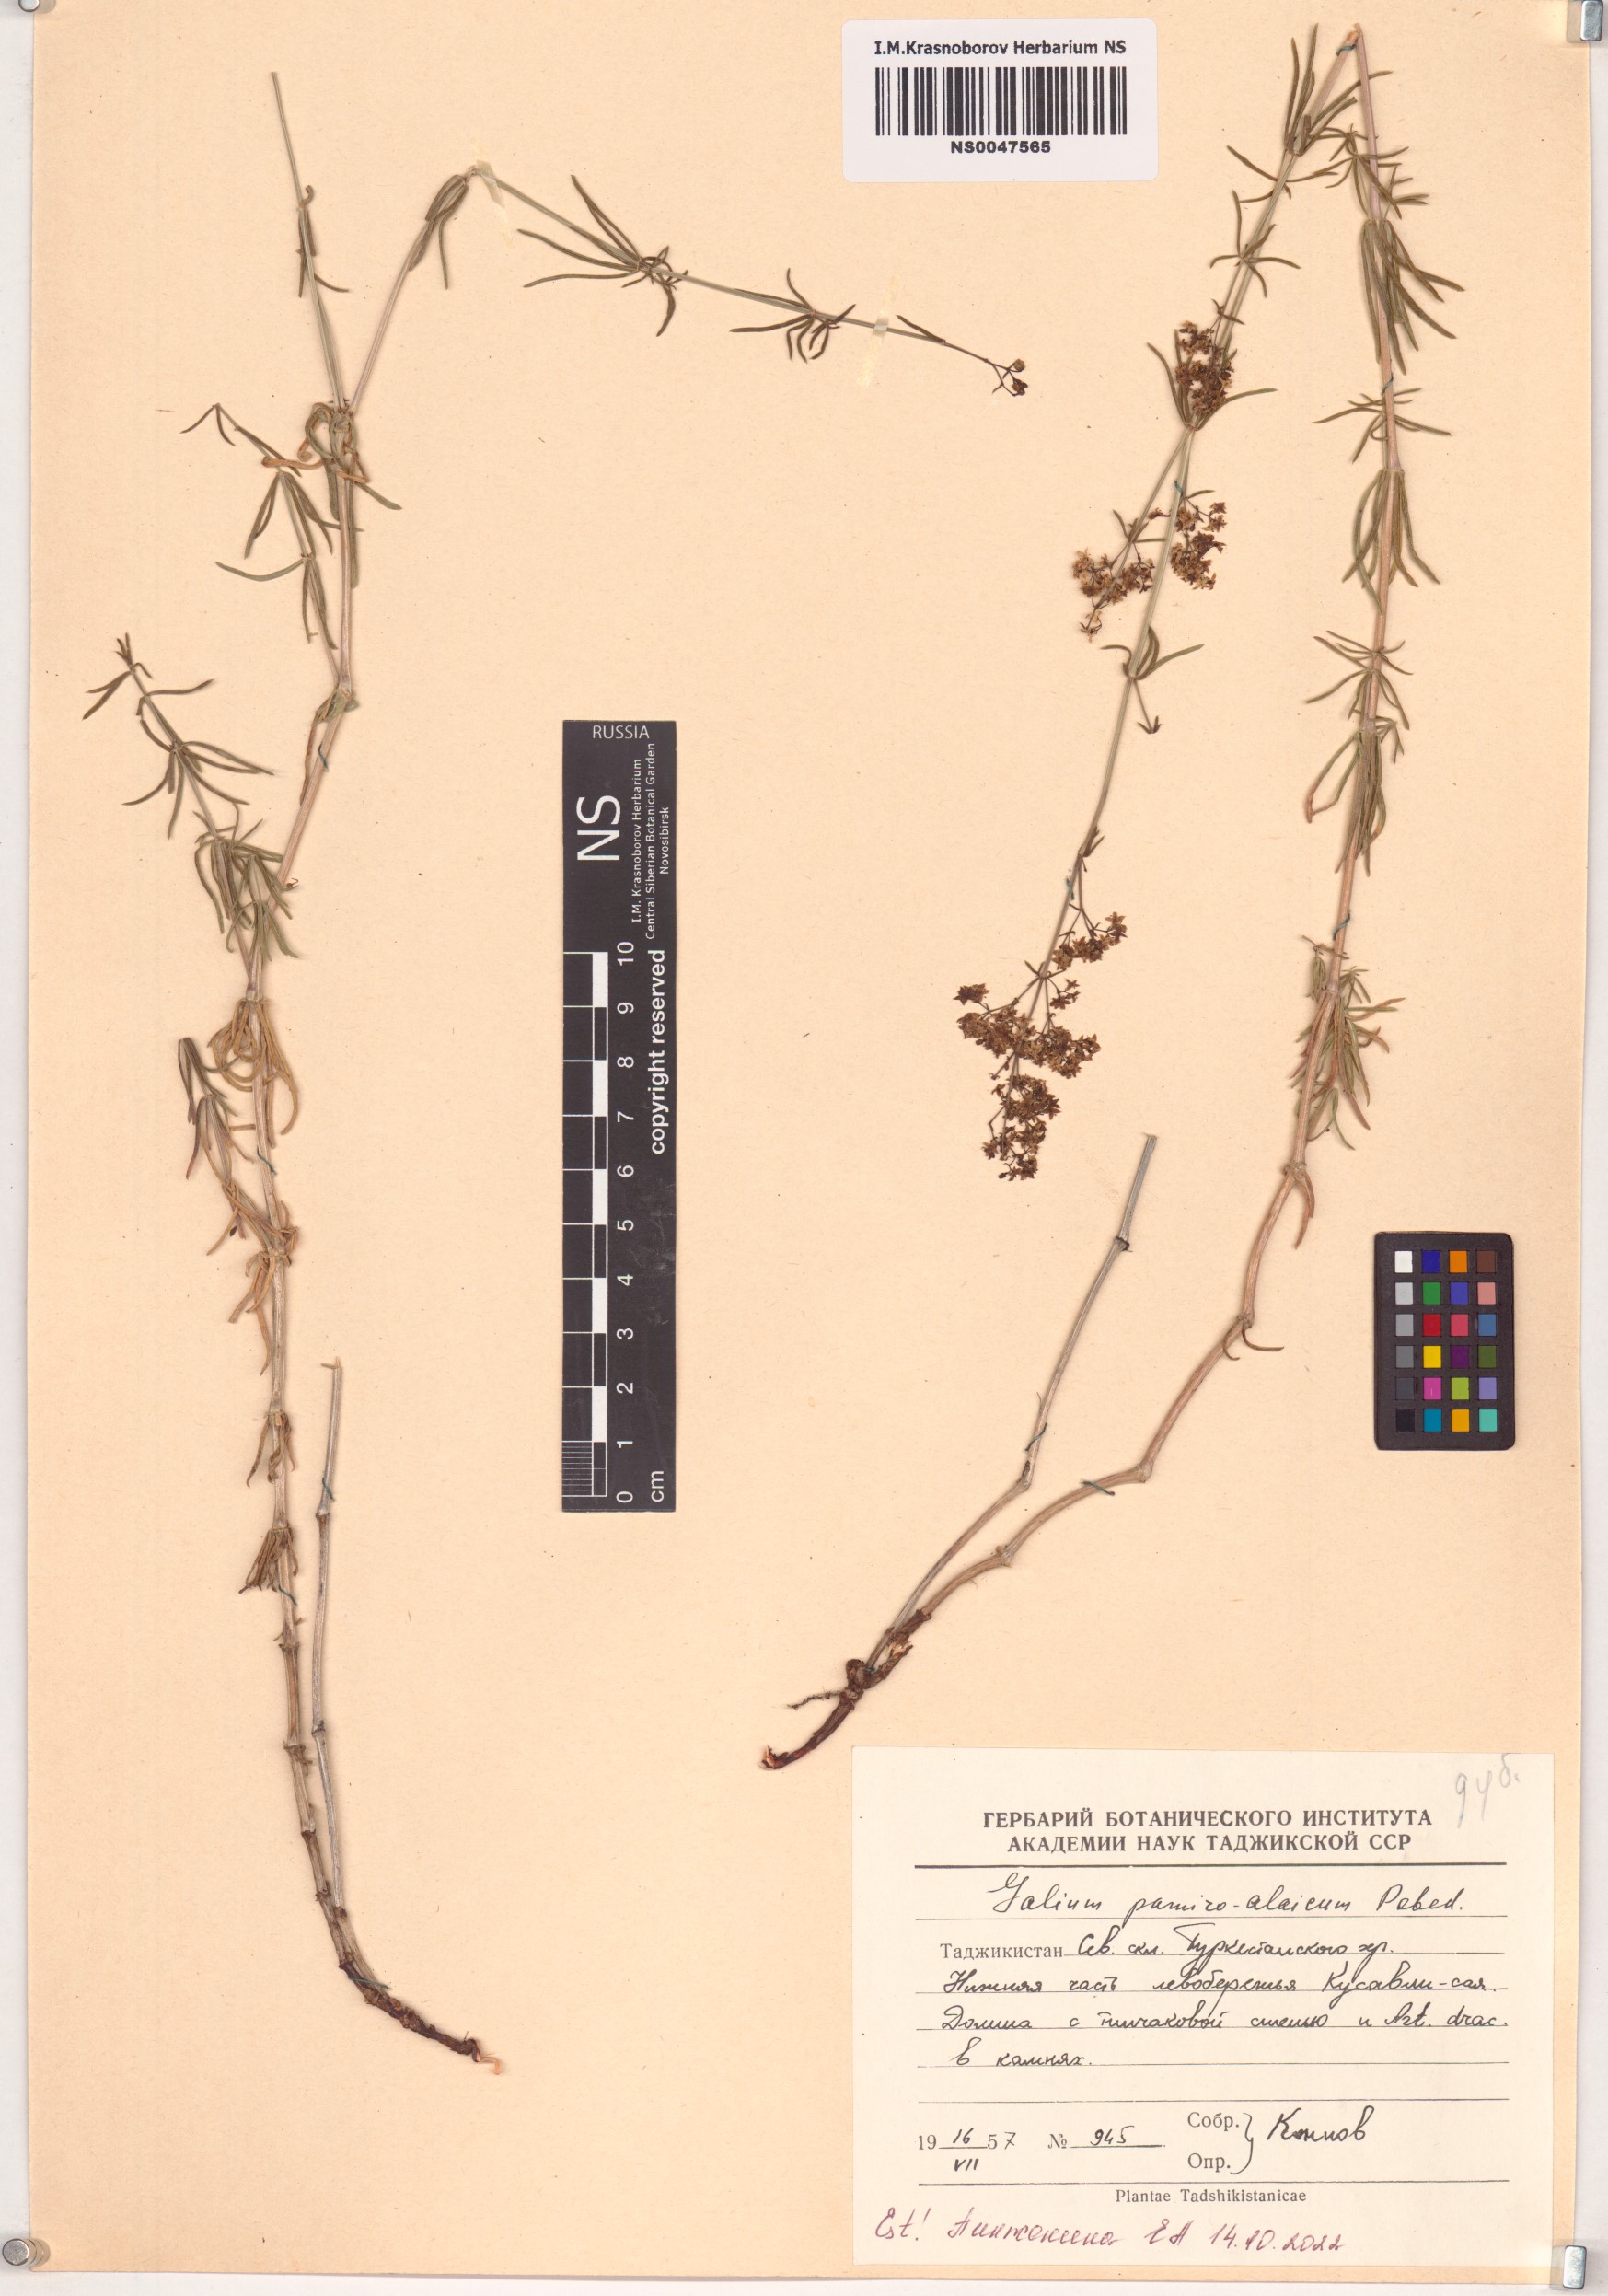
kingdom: Plantae
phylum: Tracheophyta
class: Magnoliopsida
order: Gentianales
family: Rubiaceae
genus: Galium
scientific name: Galium pamiroalaicum
